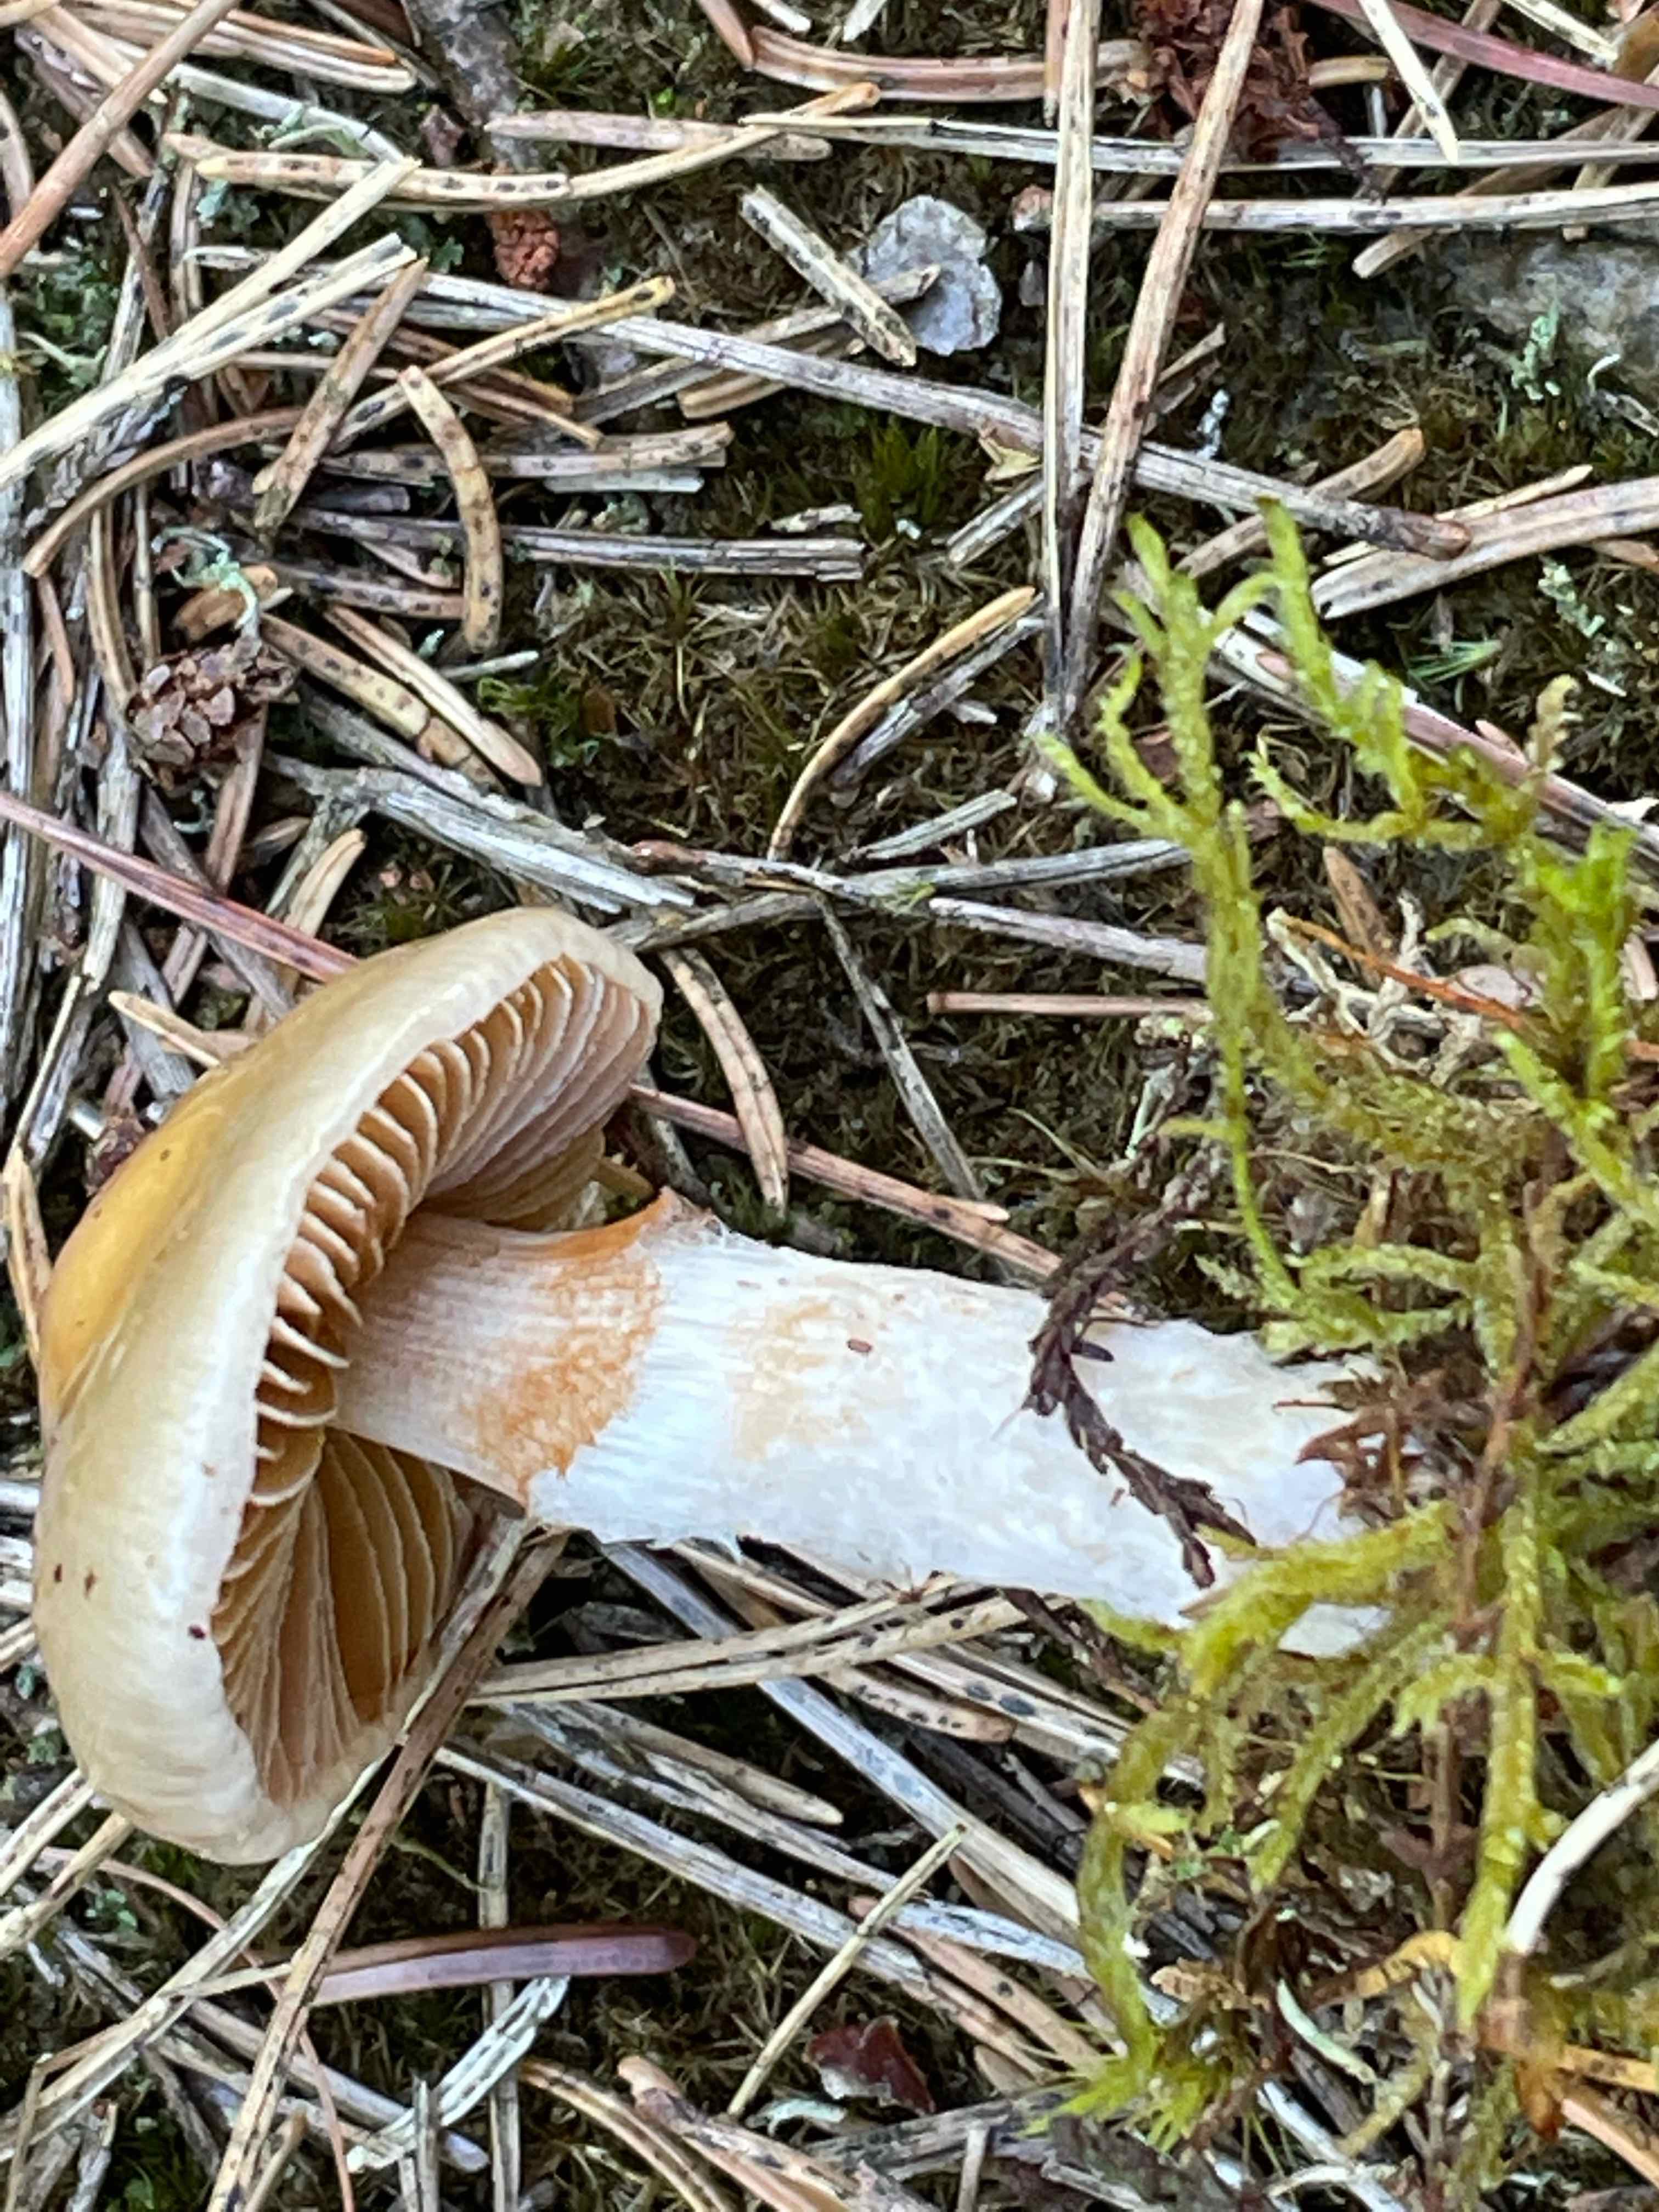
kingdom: Fungi
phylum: Basidiomycota
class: Agaricomycetes
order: Agaricales
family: Cortinariaceae
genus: Cortinarius
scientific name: Cortinarius
